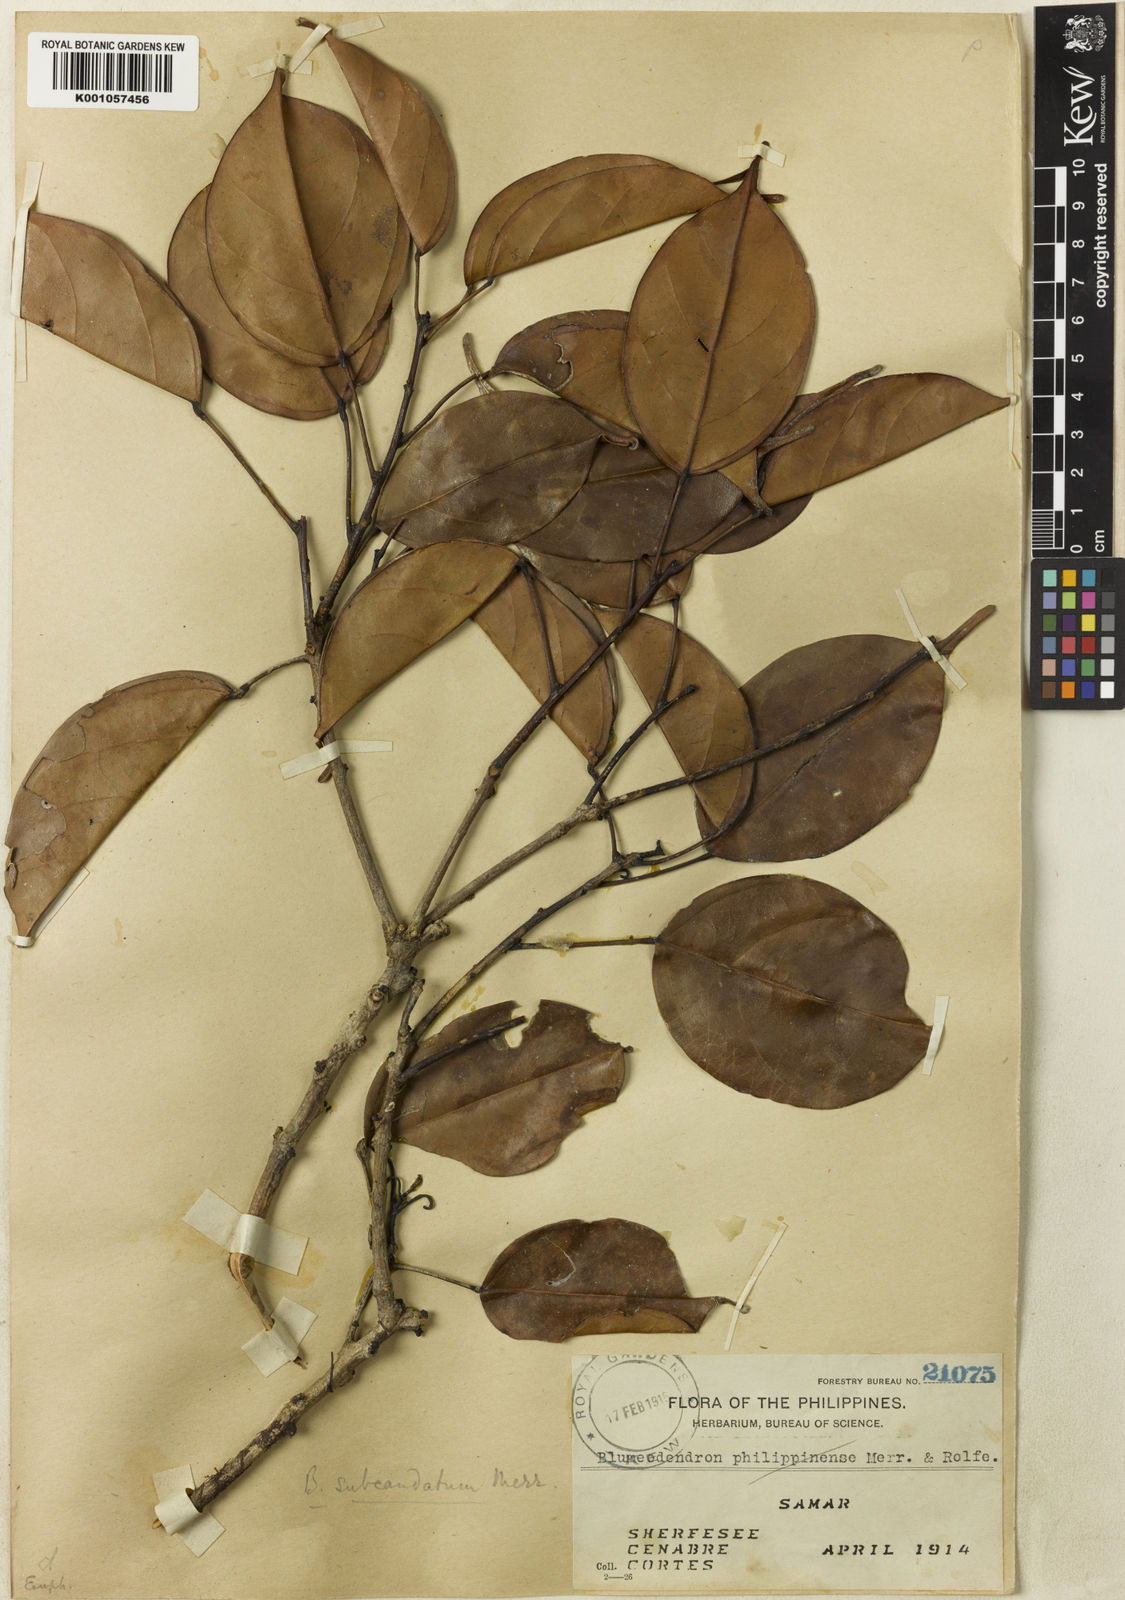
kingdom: Plantae
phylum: Tracheophyta
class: Magnoliopsida
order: Malpighiales
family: Euphorbiaceae
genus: Blumeodendron
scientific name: Blumeodendron kurzii
